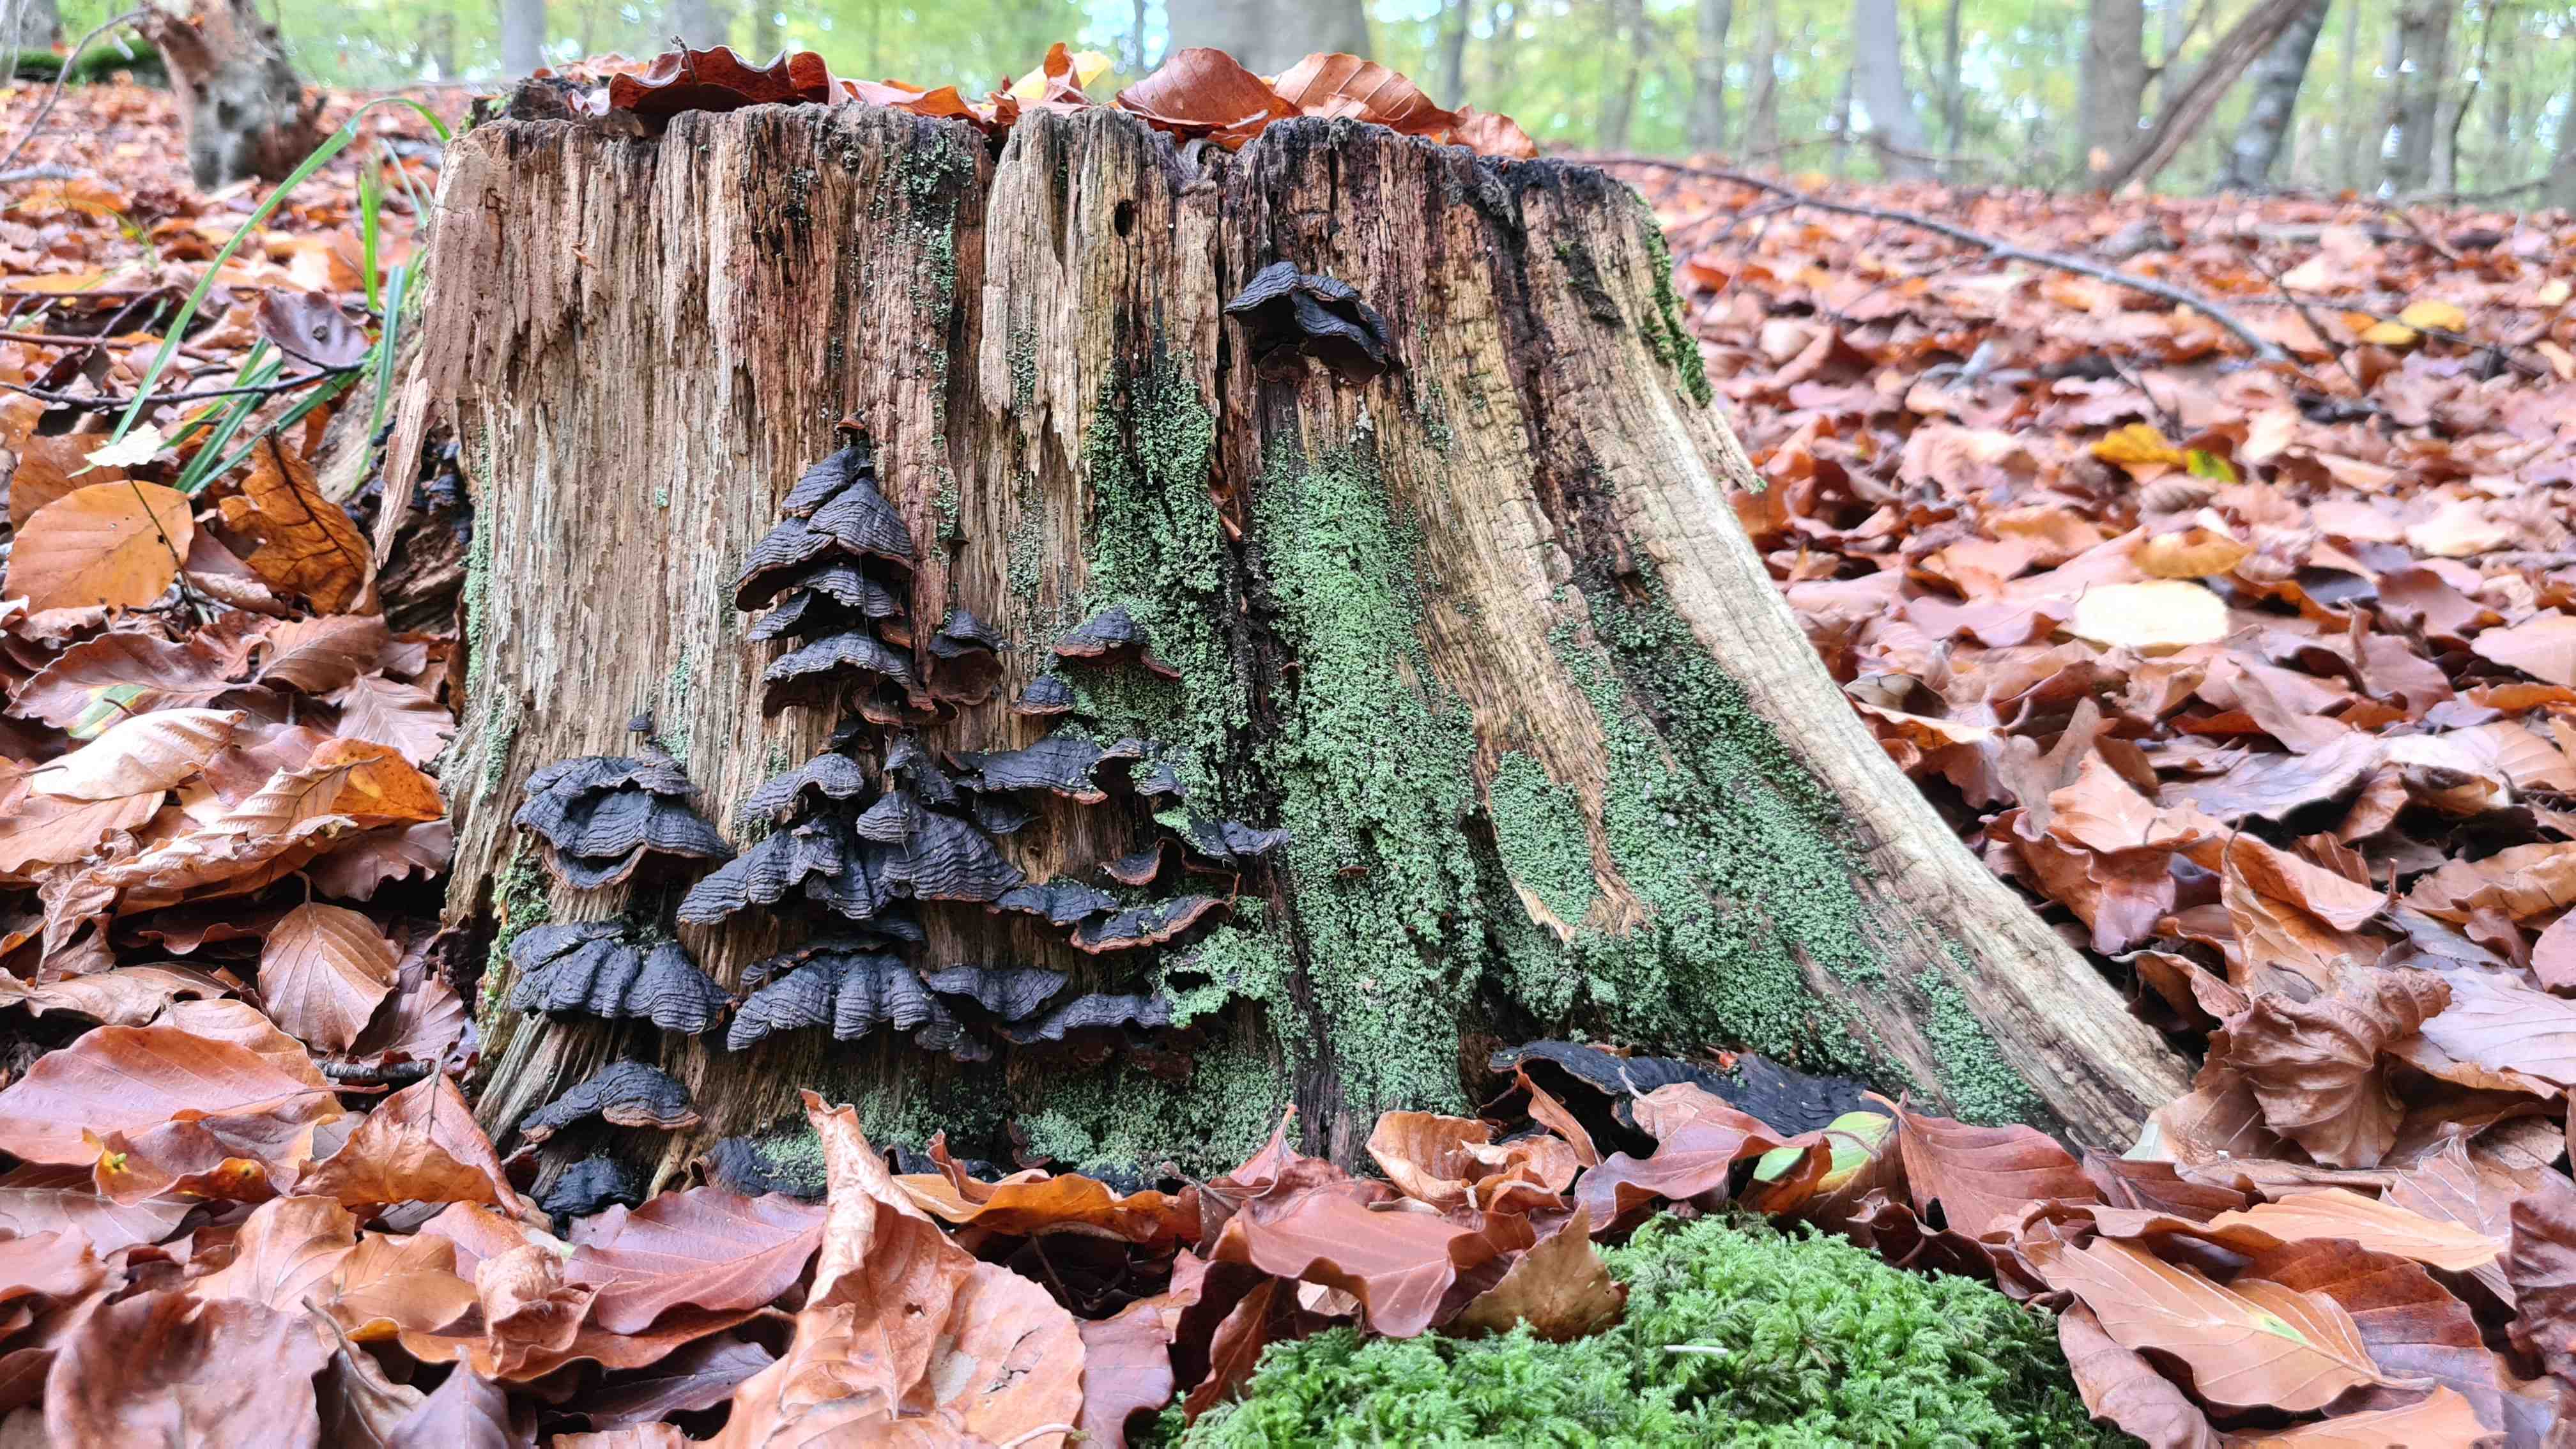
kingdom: Fungi
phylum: Basidiomycota
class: Agaricomycetes
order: Hymenochaetales
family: Hymenochaetaceae
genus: Hymenochaete
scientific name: Hymenochaete rubiginosa
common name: stiv ruslædersvamp
